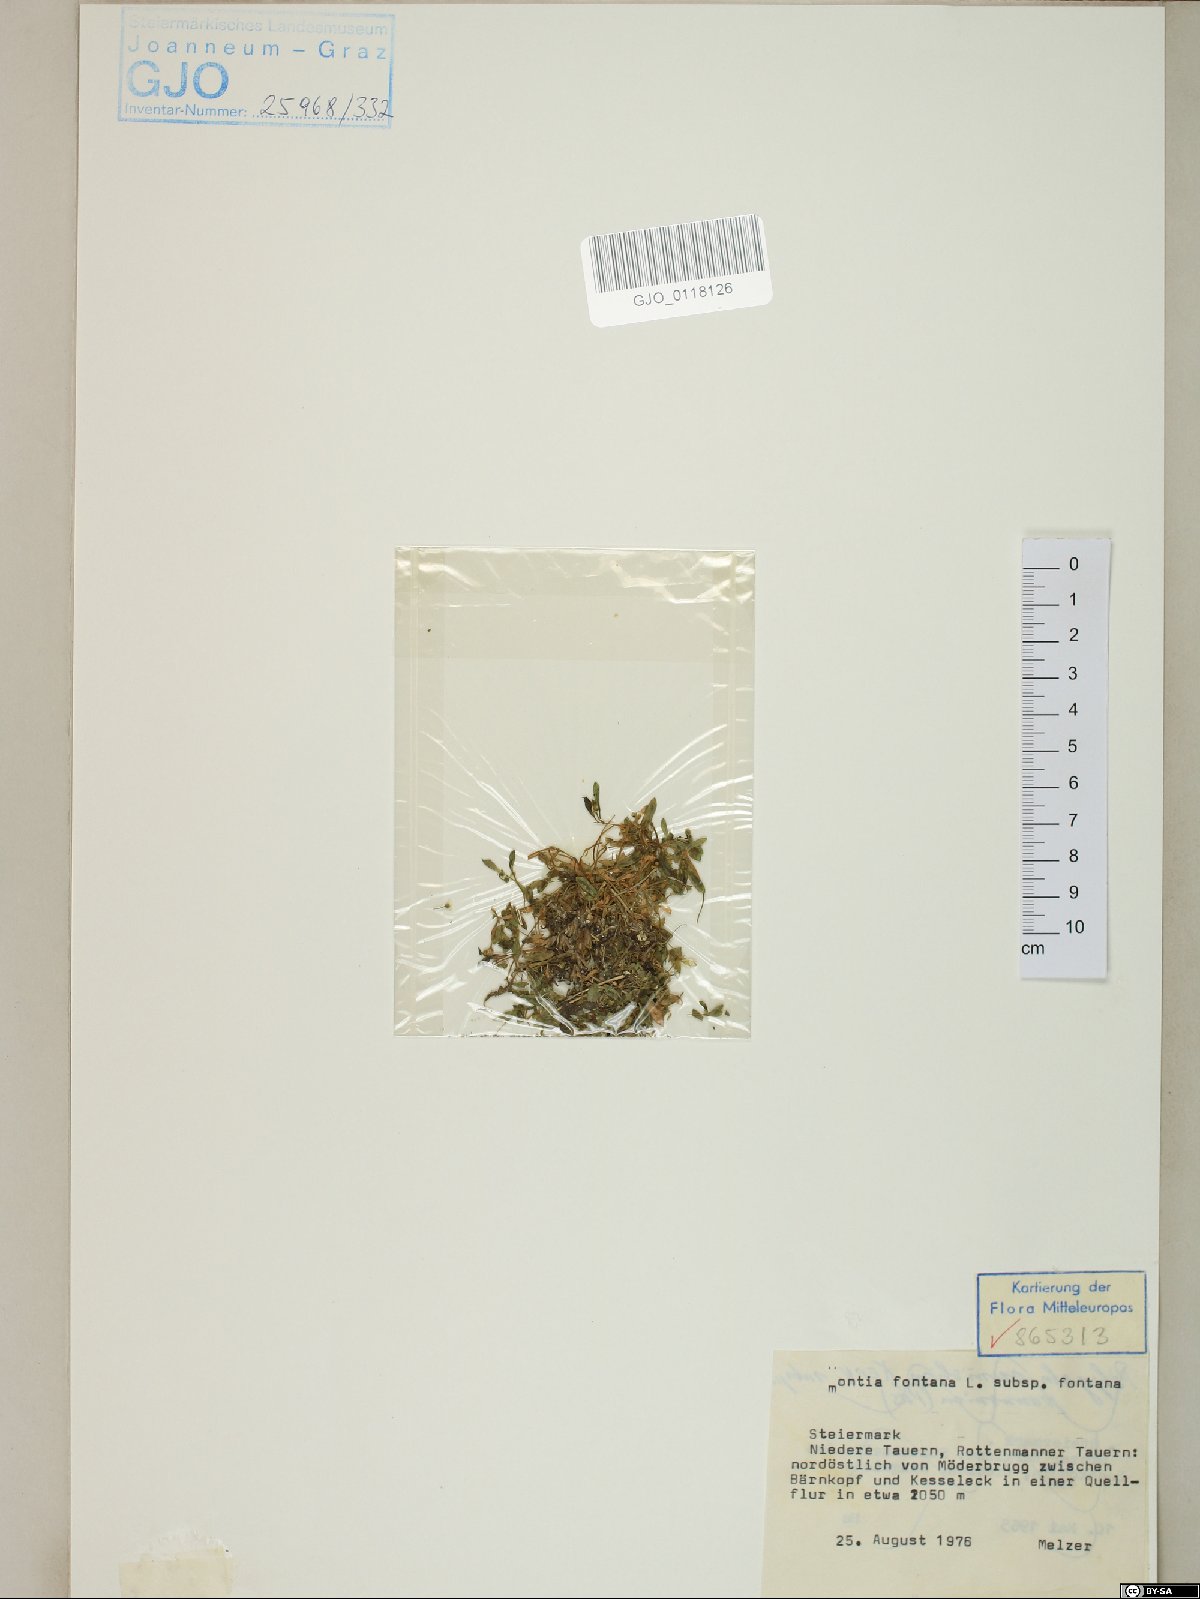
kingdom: Plantae
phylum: Tracheophyta
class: Magnoliopsida
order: Caryophyllales
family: Montiaceae
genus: Montia
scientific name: Montia fontana
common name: Blinks
